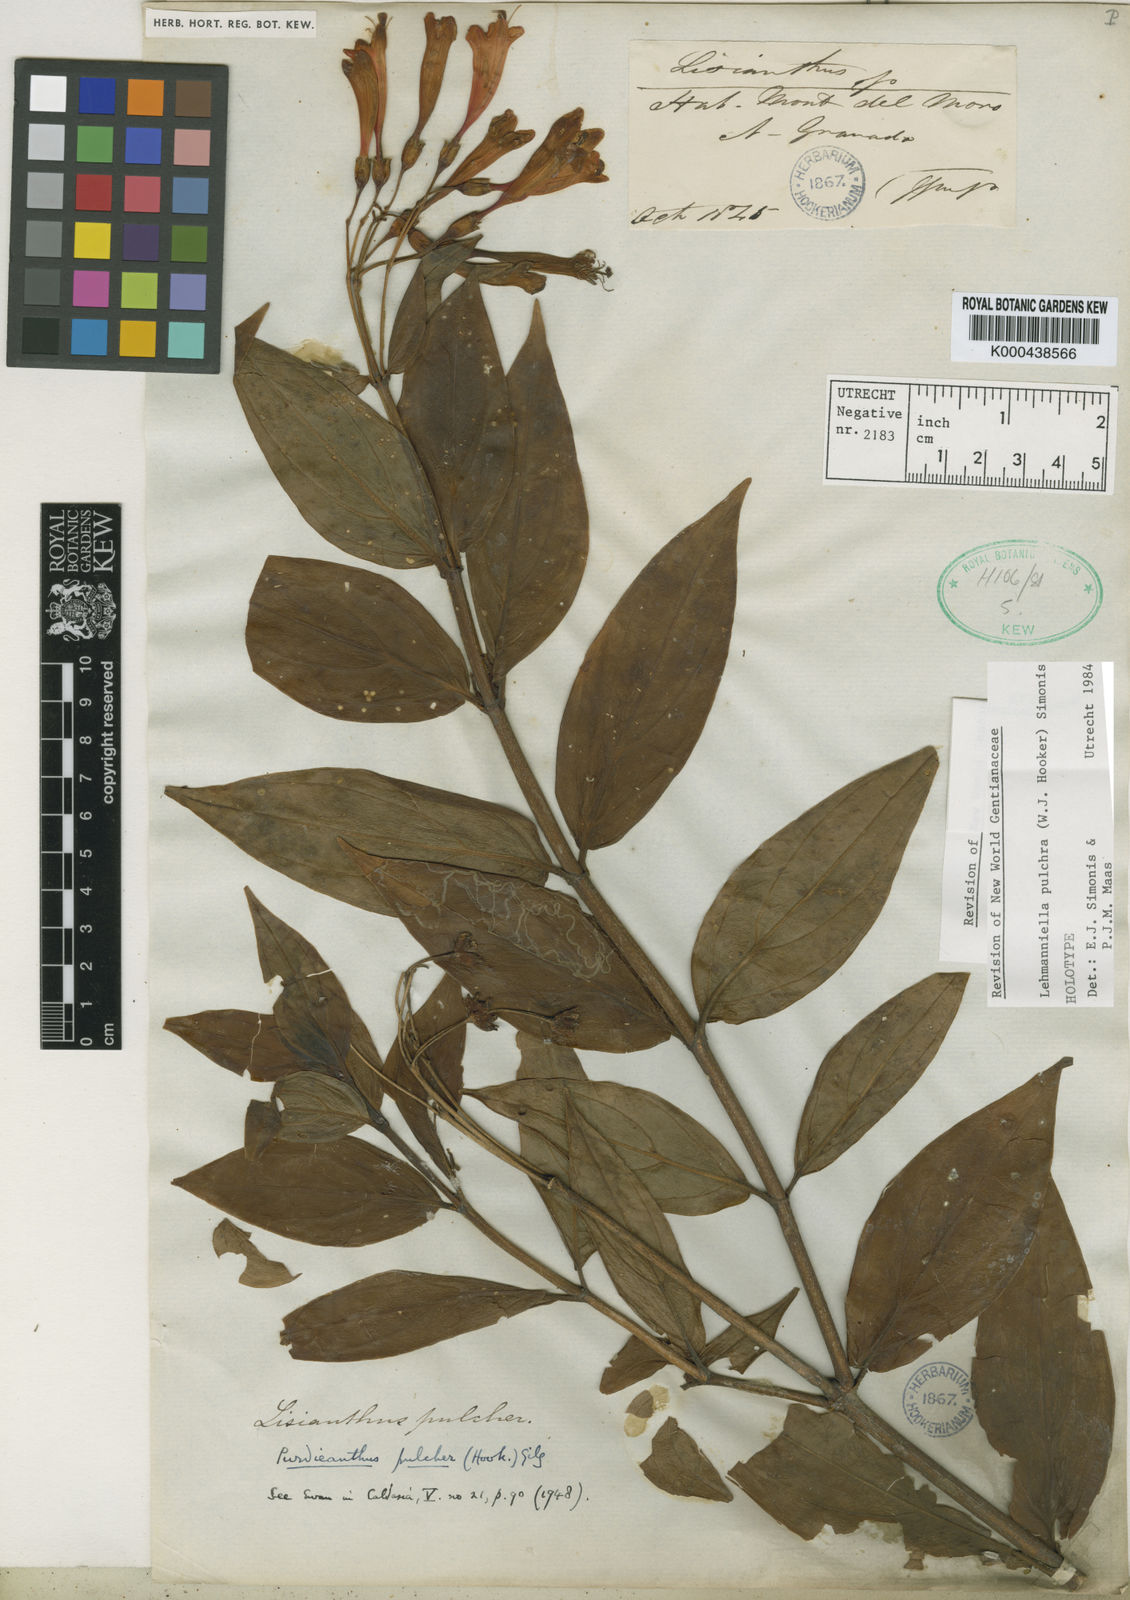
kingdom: Plantae
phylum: Tracheophyta
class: Magnoliopsida
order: Gentianales
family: Gentianaceae
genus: Lehmanniella
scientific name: Lehmanniella pulchra
